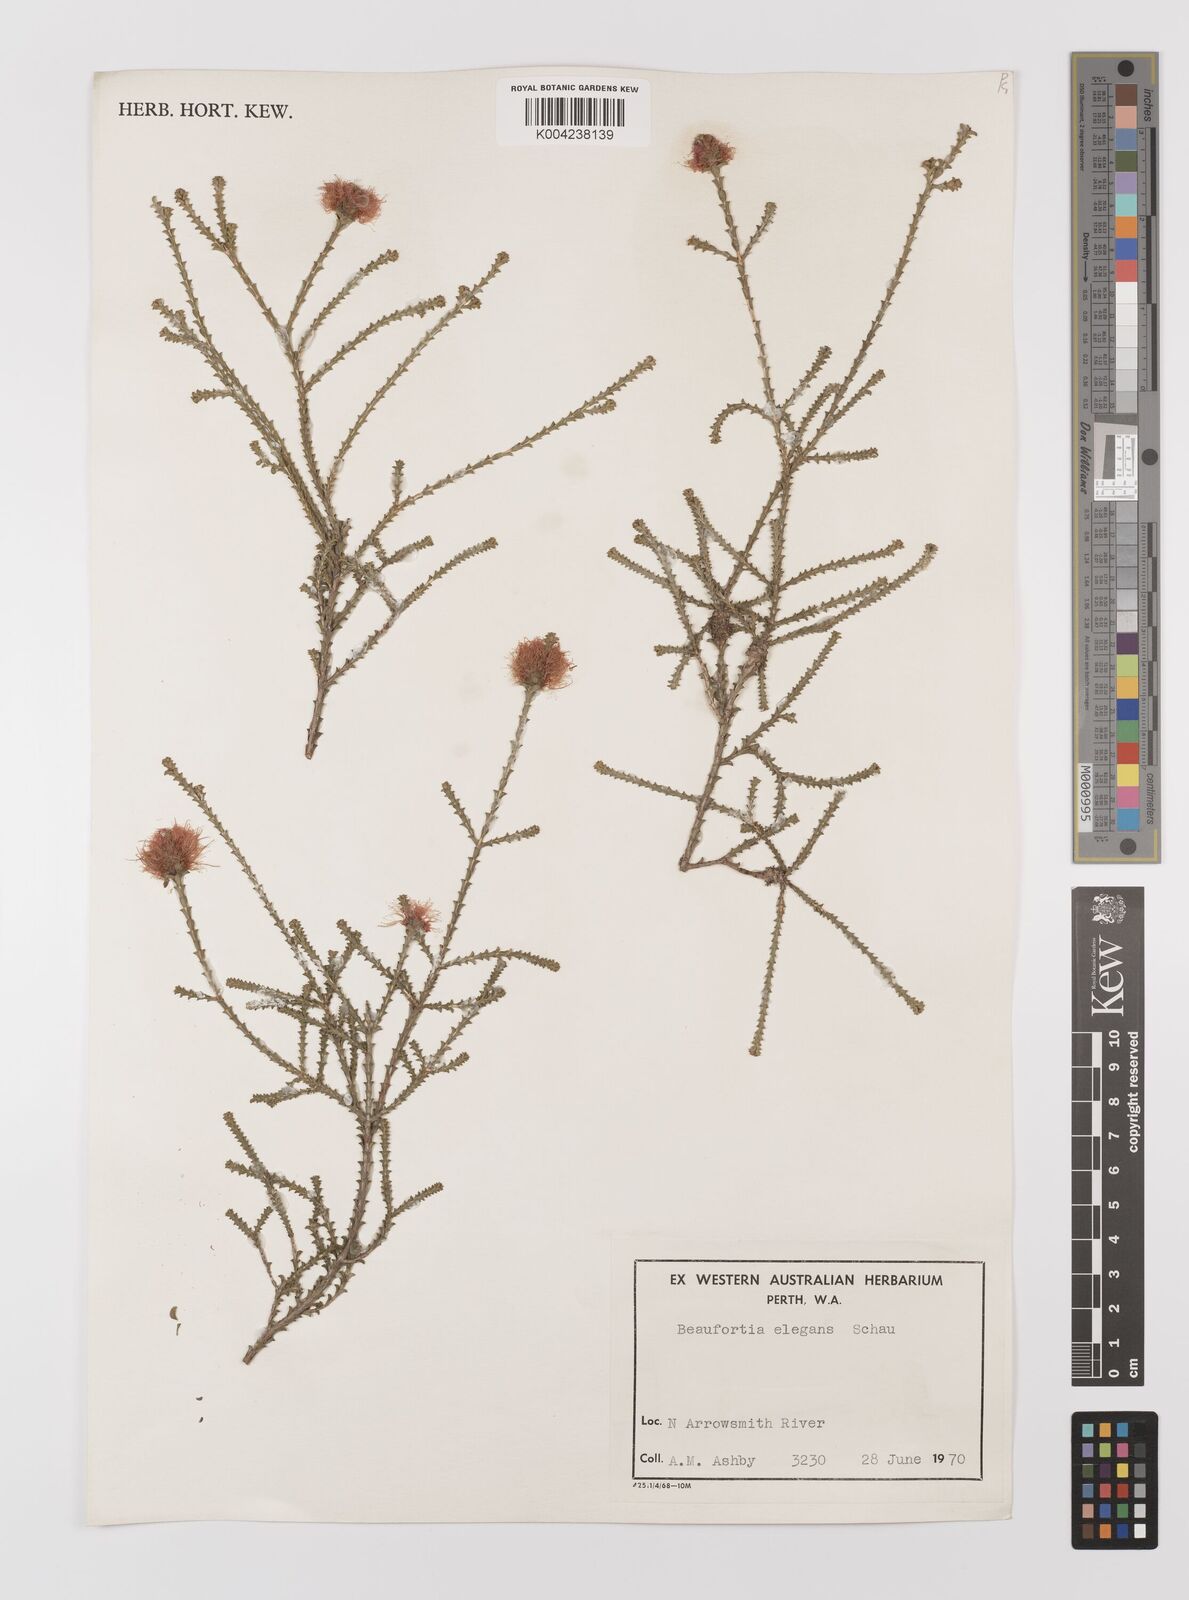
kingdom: Plantae
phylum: Tracheophyta
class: Magnoliopsida
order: Myrtales
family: Myrtaceae
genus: Melaleuca
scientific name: Melaleuca scitula
